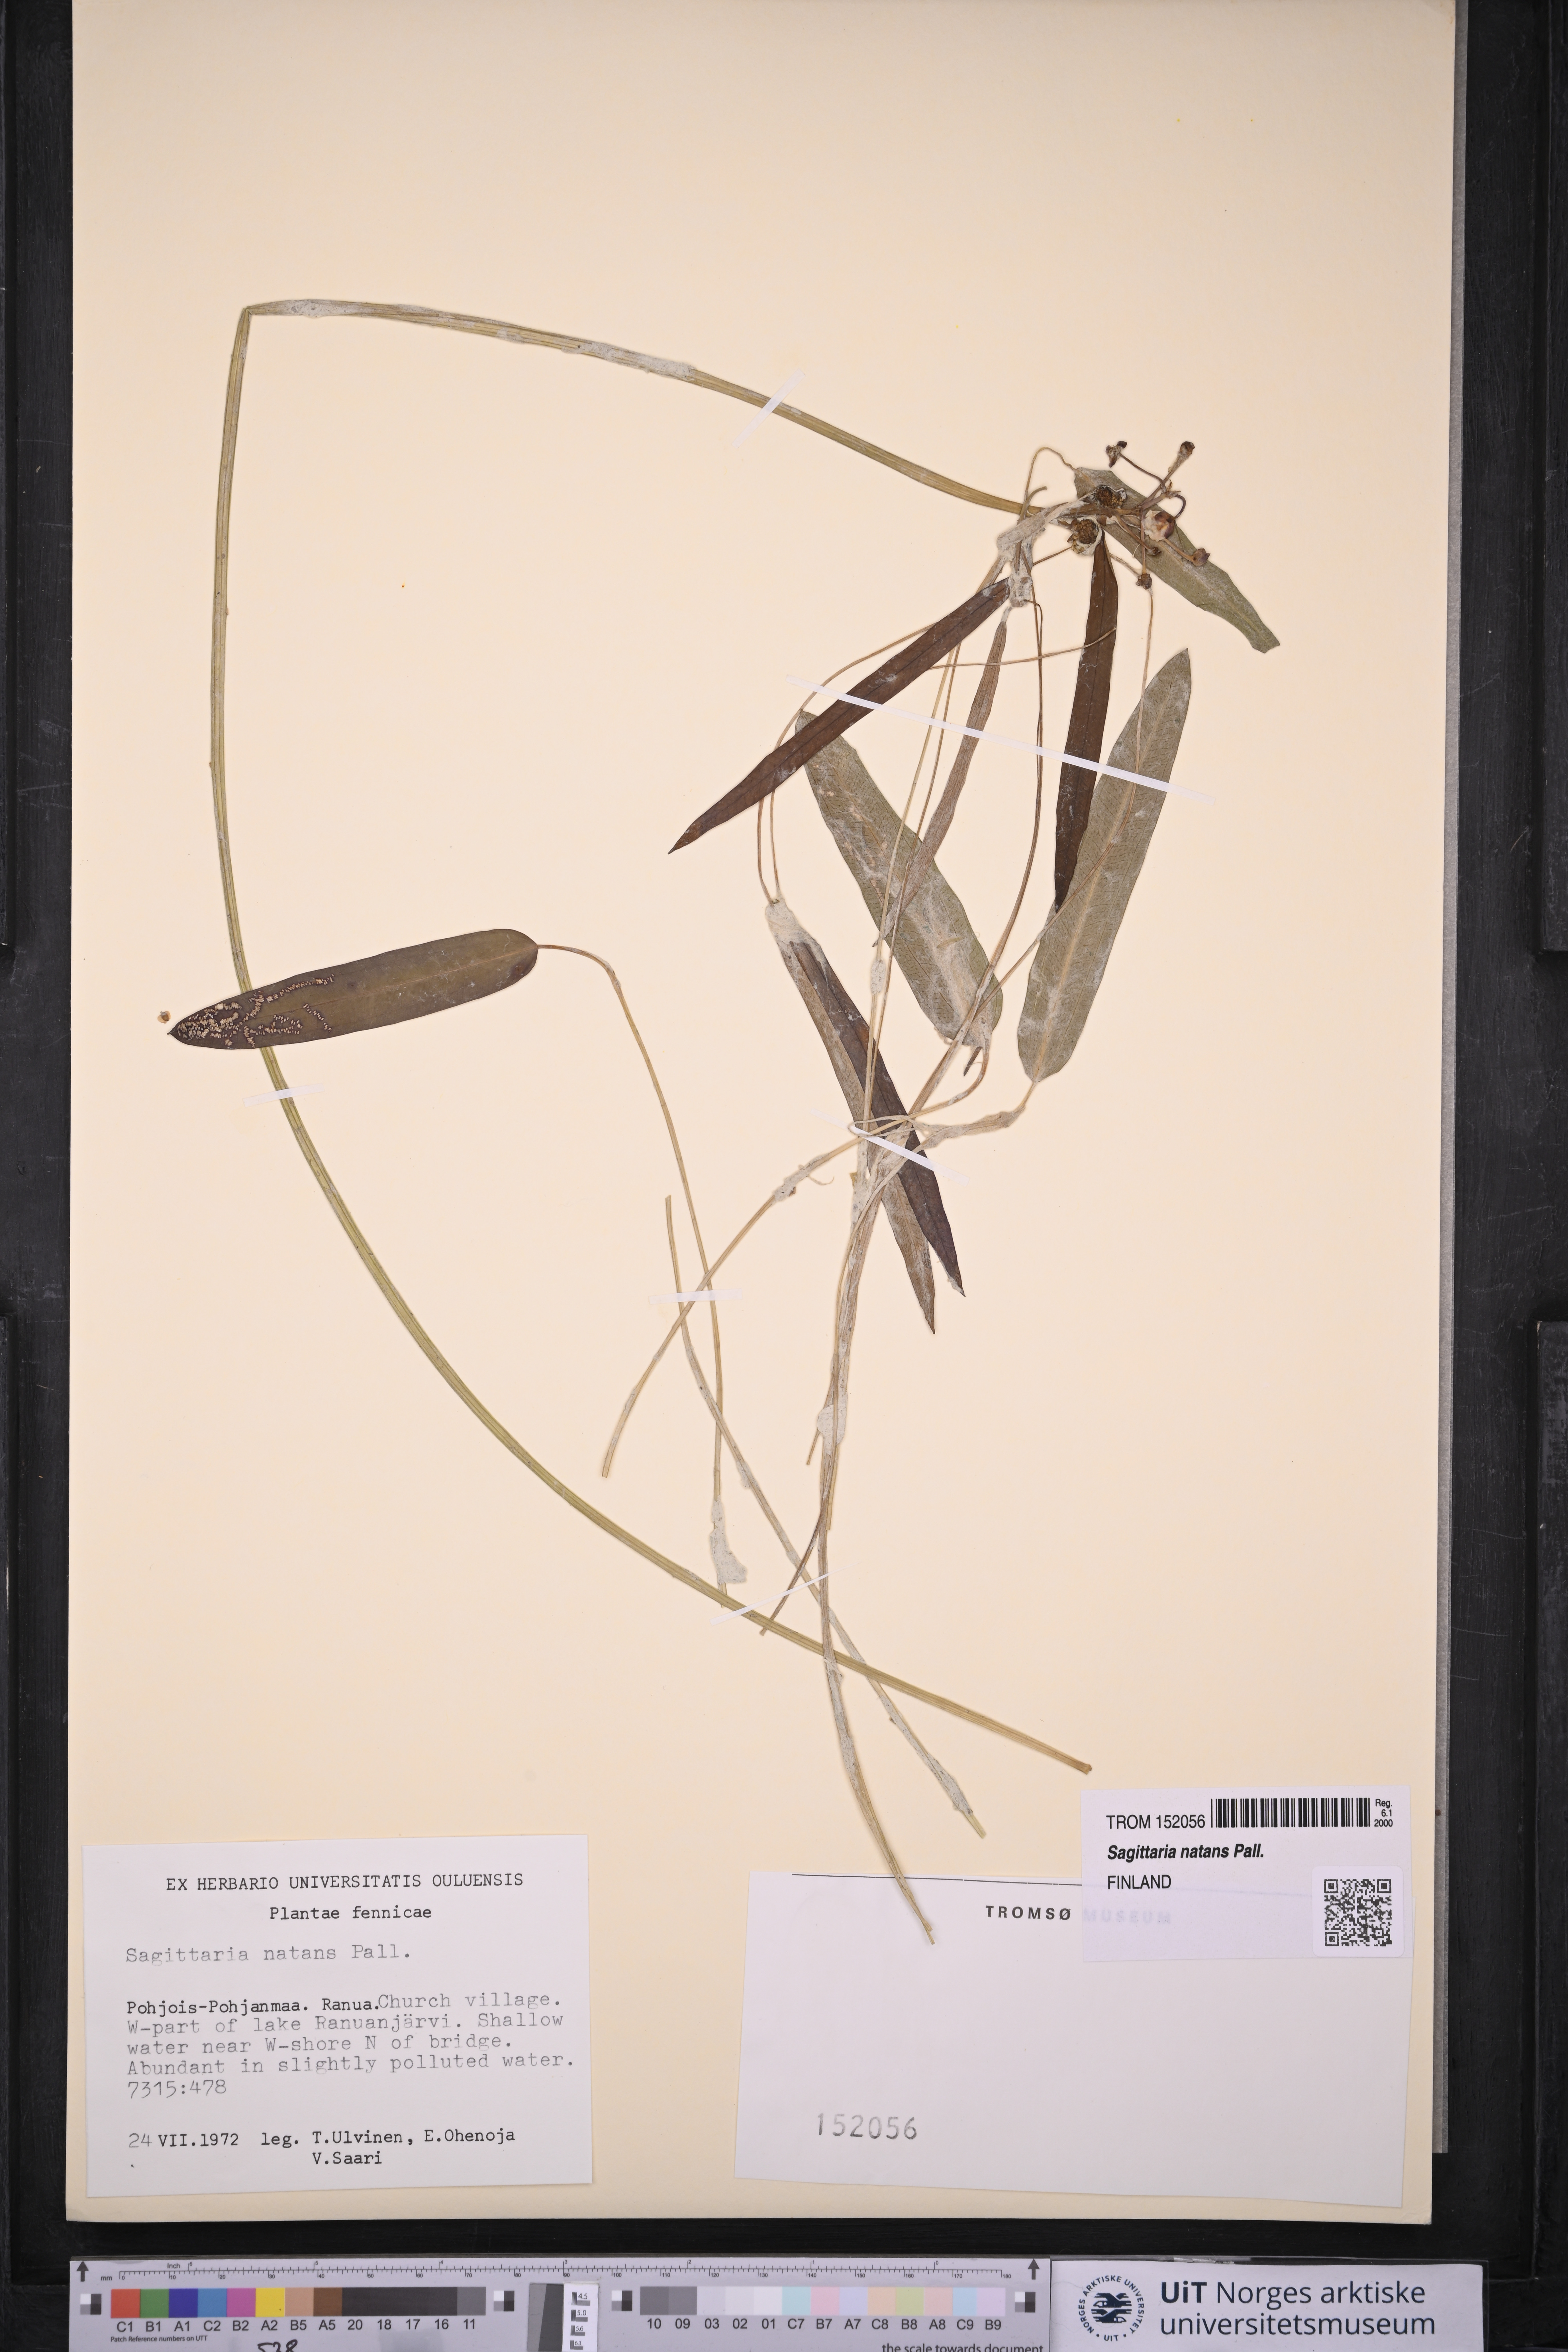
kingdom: Plantae
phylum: Tracheophyta
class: Liliopsida
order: Alismatales
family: Alismataceae
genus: Sagittaria
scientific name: Sagittaria natans
